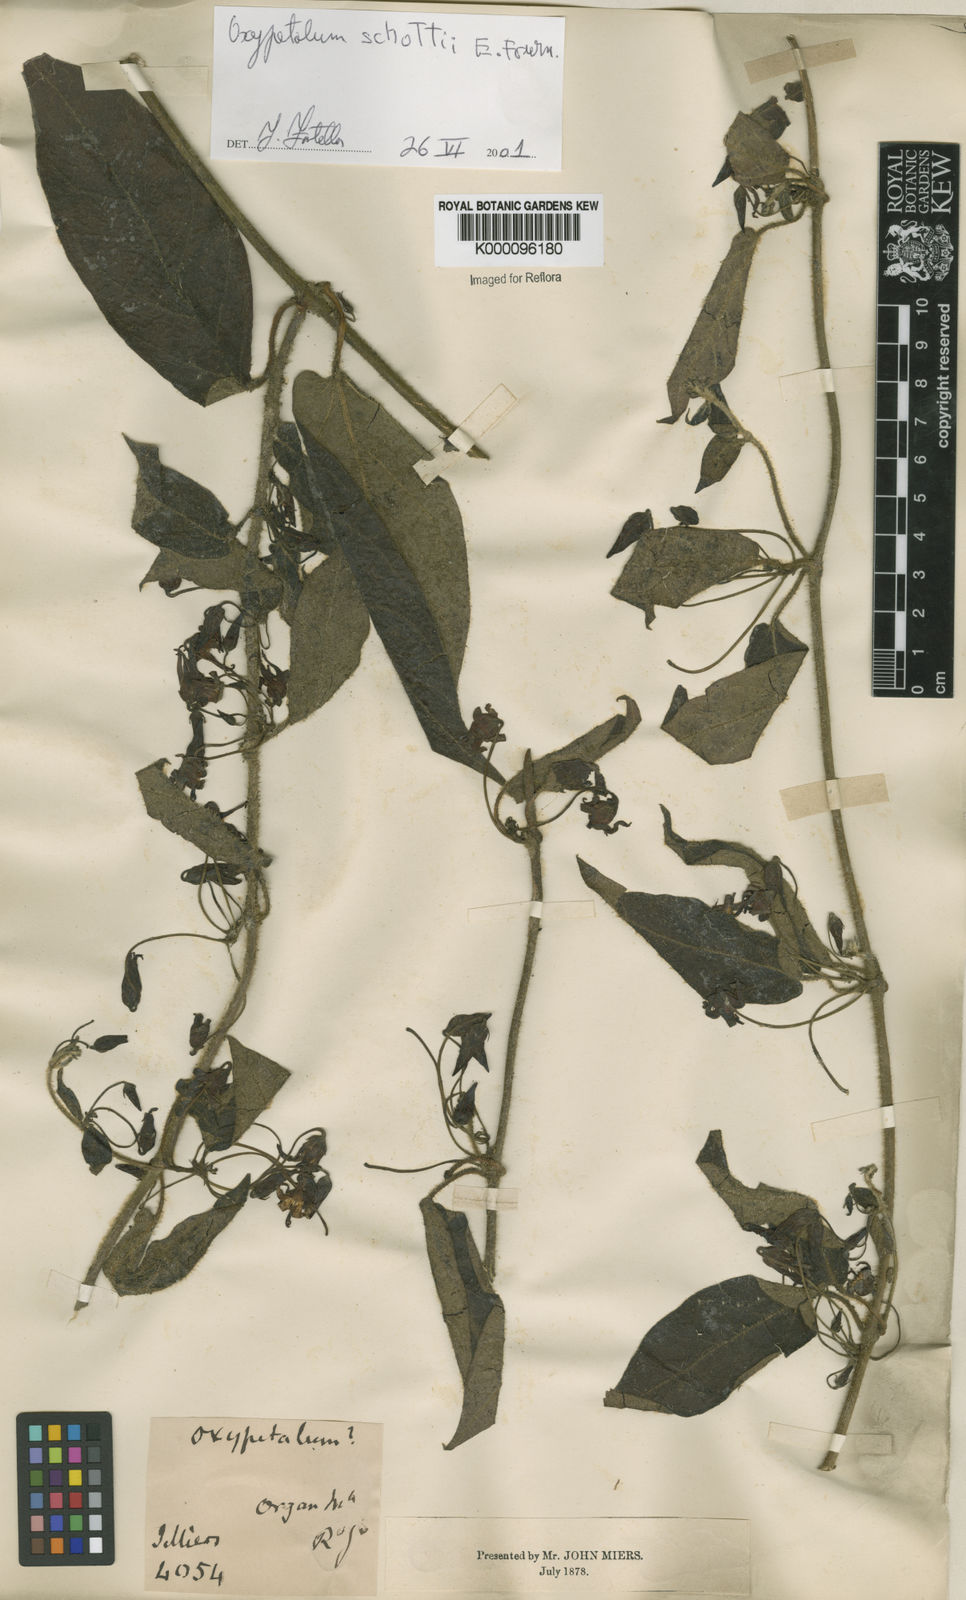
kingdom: Plantae
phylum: Tracheophyta
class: Magnoliopsida
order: Gentianales
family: Apocynaceae
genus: Oxypetalum
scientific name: Oxypetalum schottii
